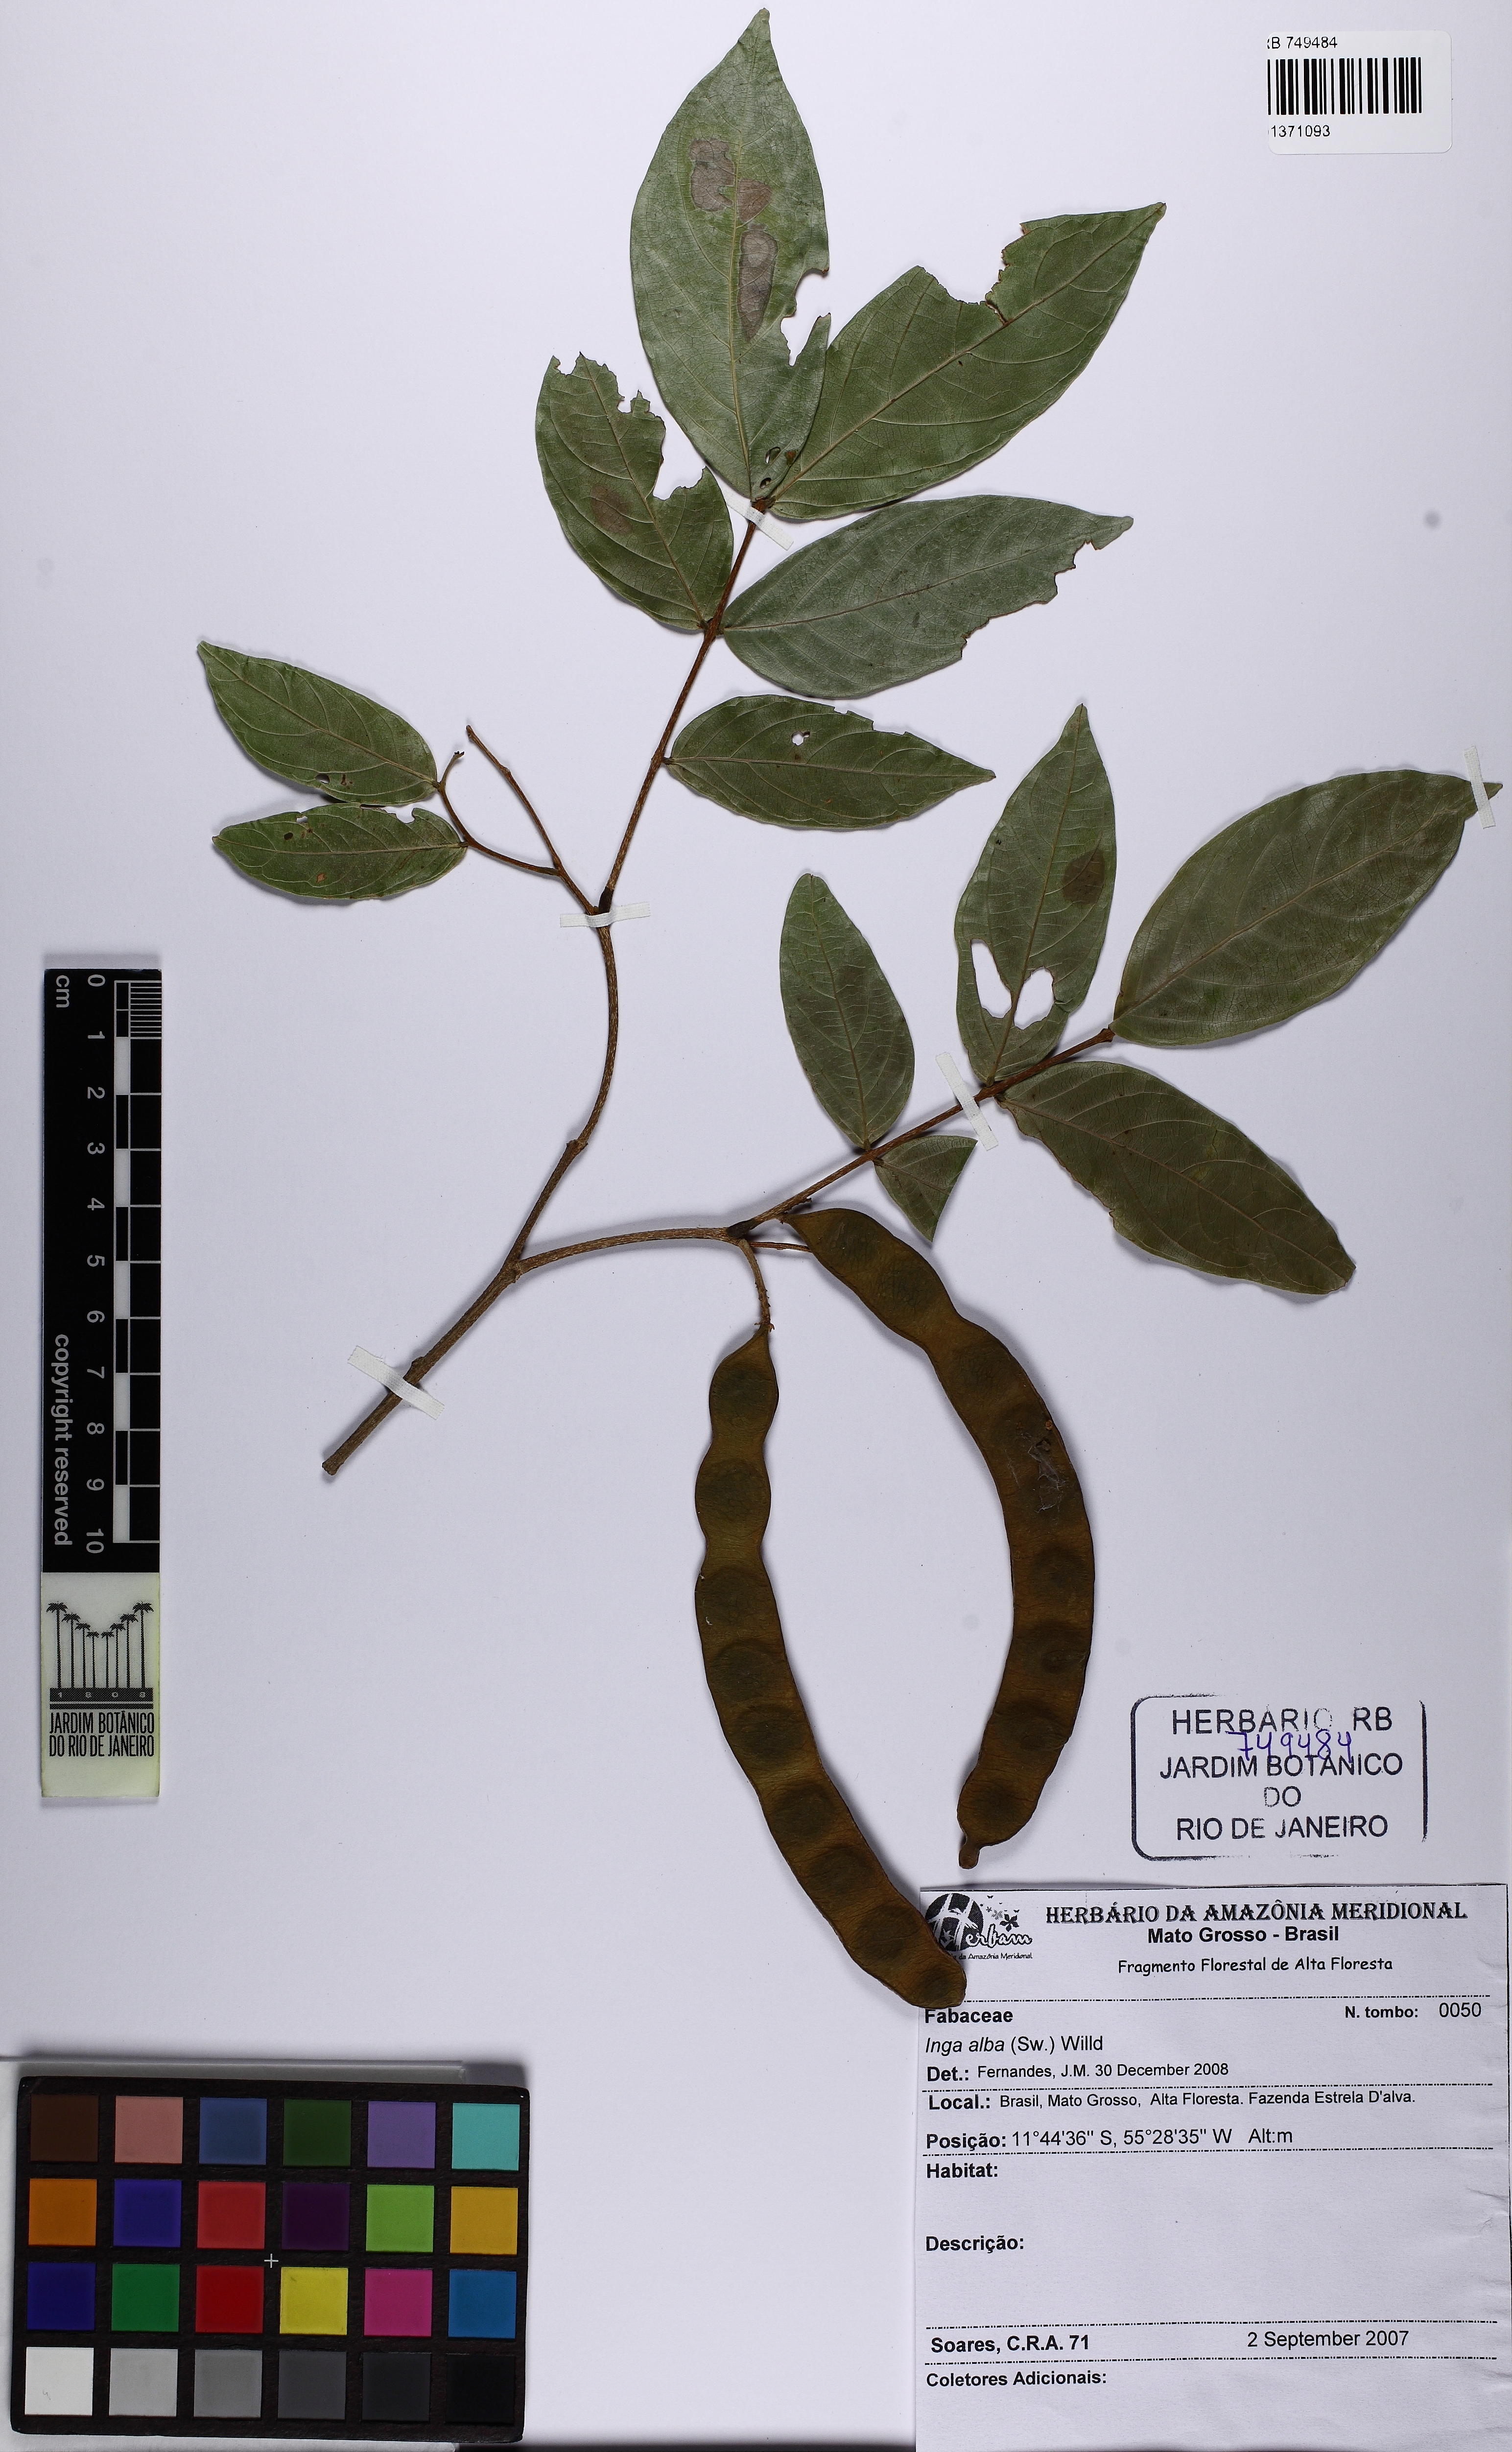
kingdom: Plantae
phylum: Tracheophyta
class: Magnoliopsida
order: Fabales
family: Fabaceae
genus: Inga
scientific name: Inga alba
